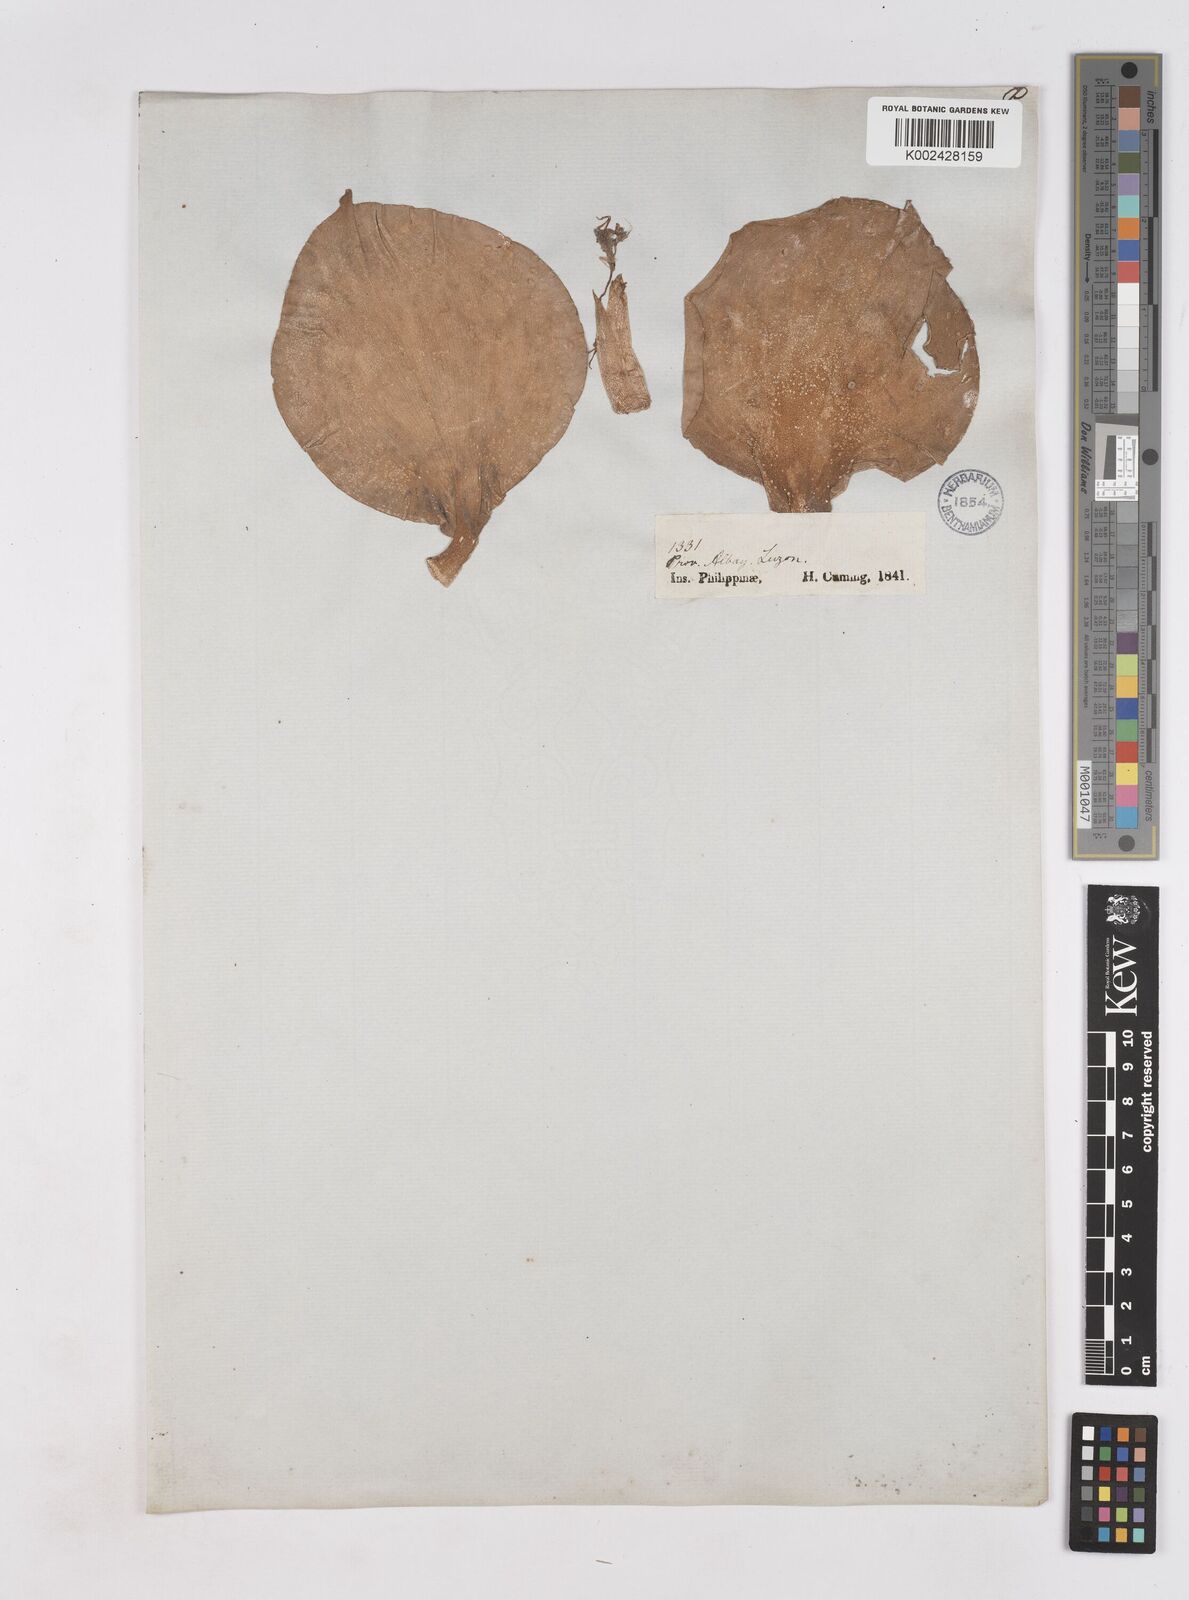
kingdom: Plantae
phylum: Tracheophyta
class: Liliopsida
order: Zingiberales
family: Zingiberaceae
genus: Kaempferia
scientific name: Kaempferia galanga
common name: Aromatic ginger
